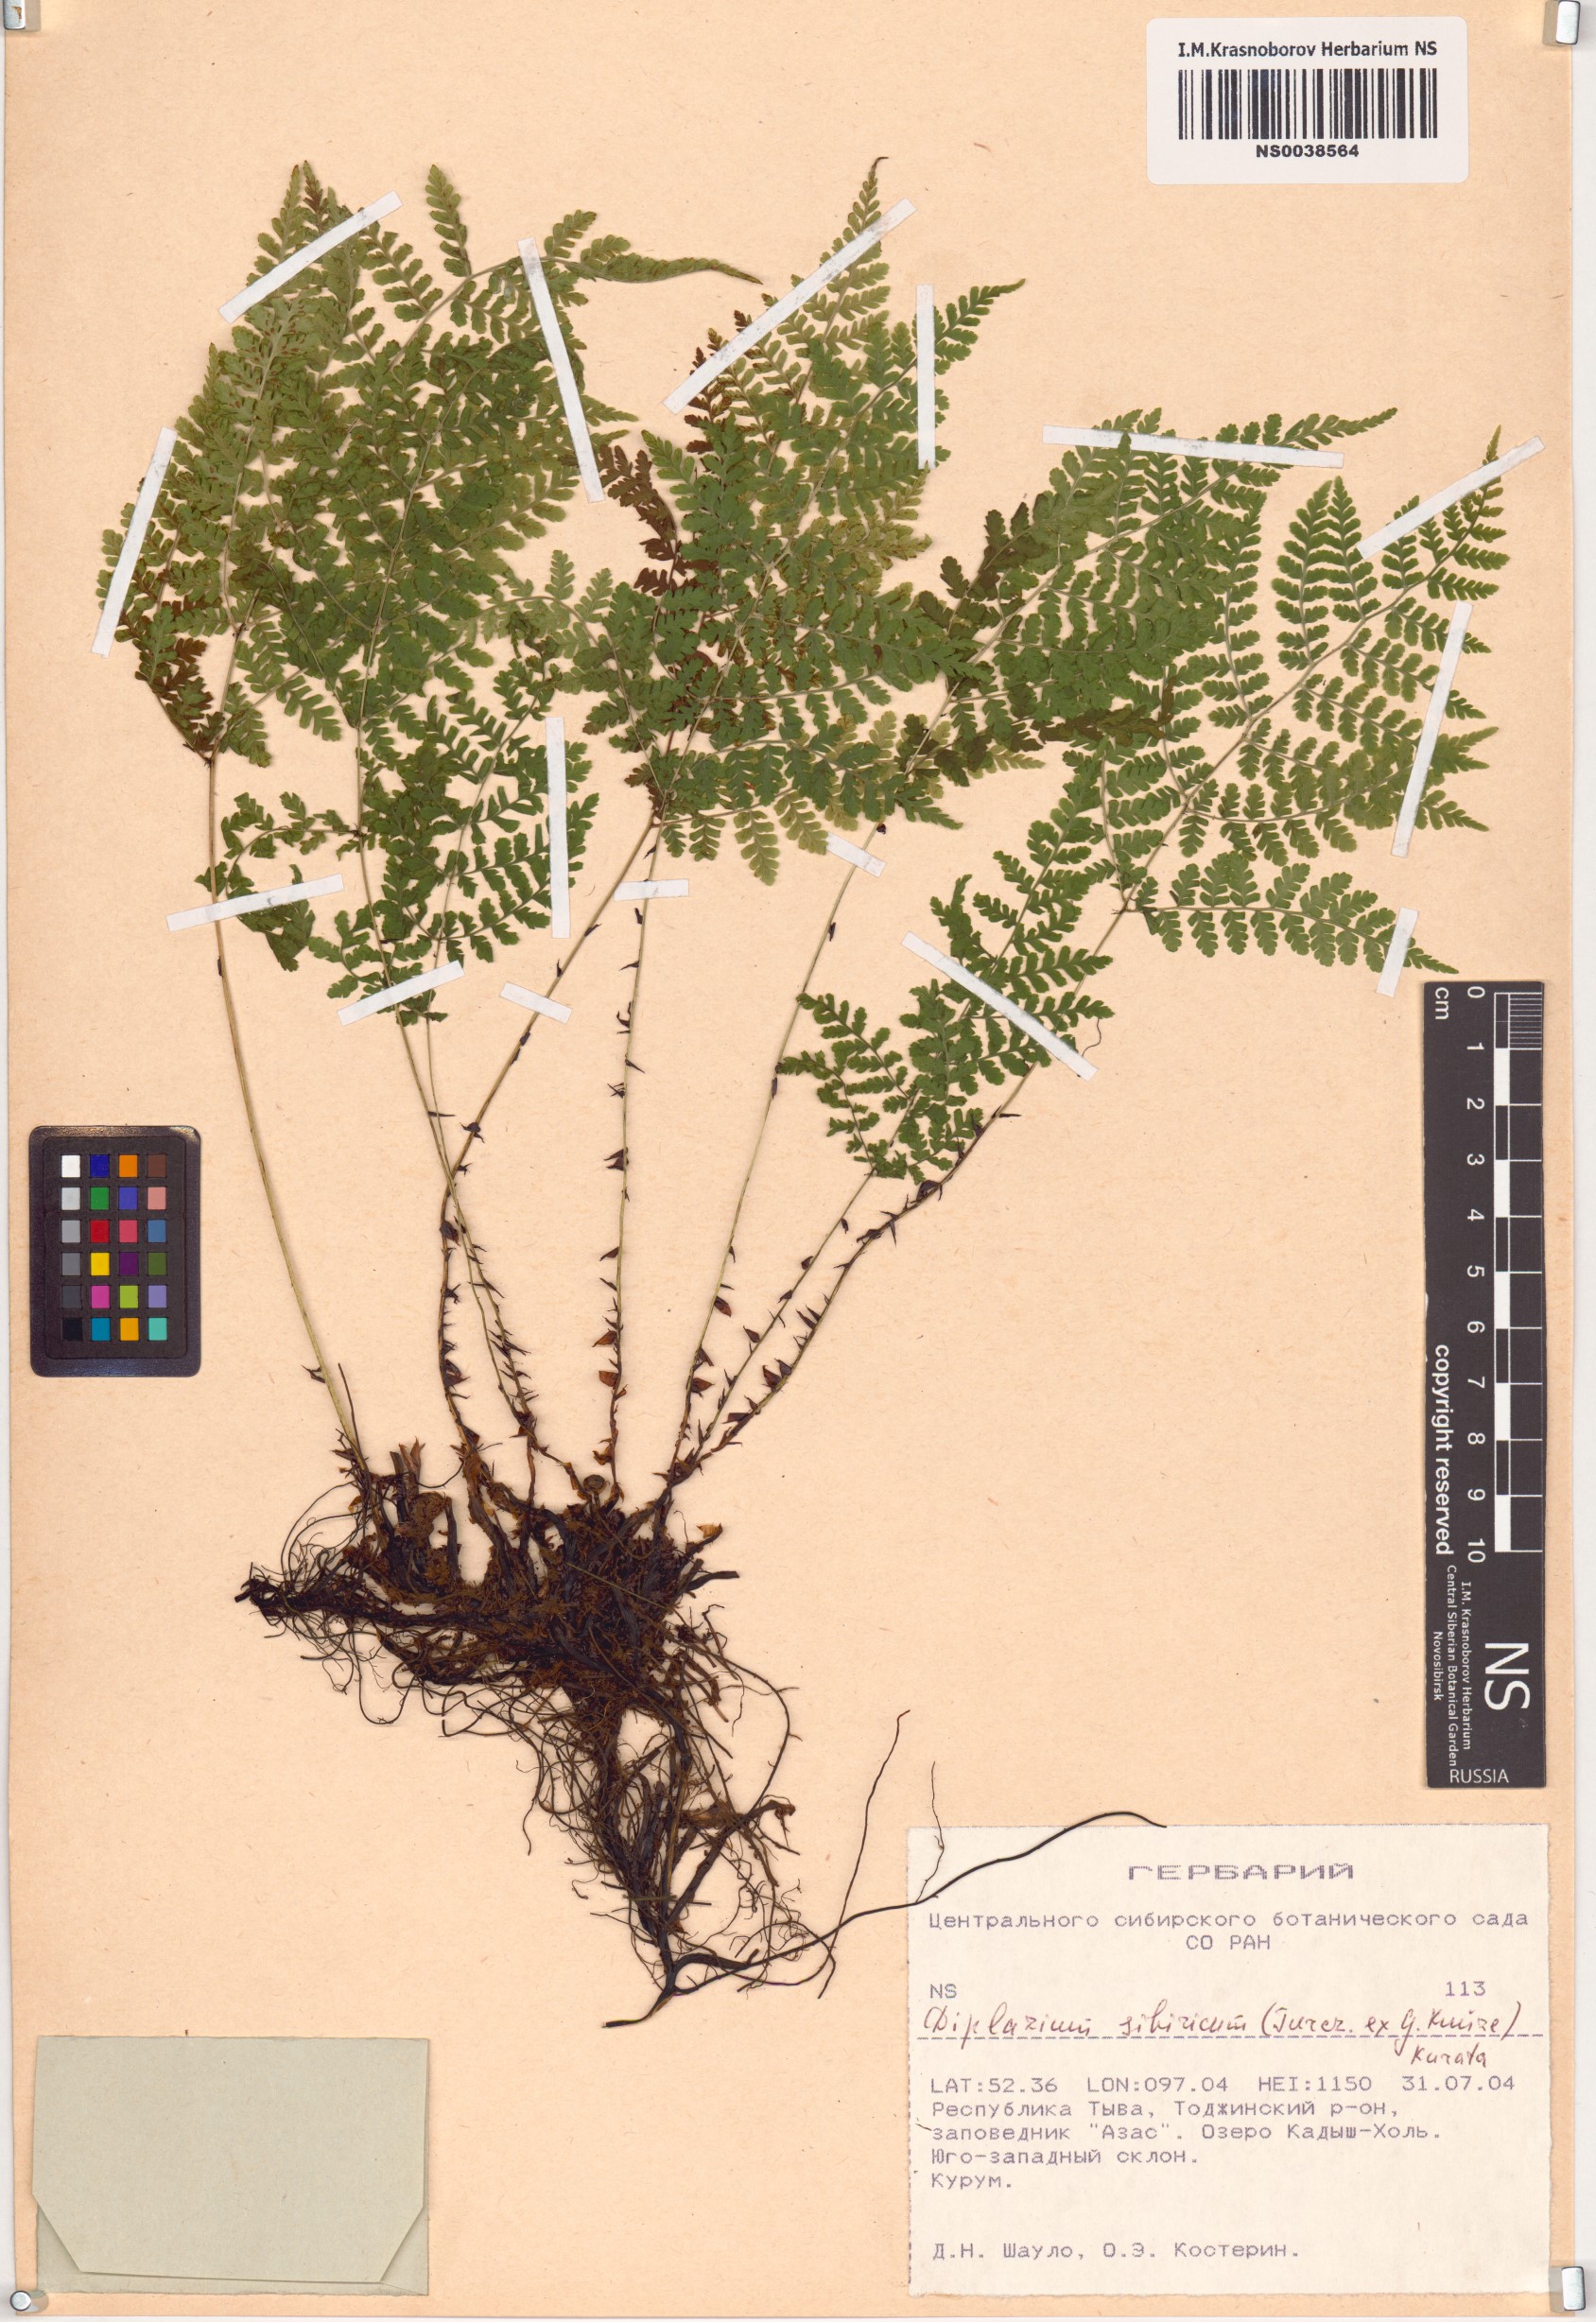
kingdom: Plantae
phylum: Tracheophyta
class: Polypodiopsida
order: Polypodiales
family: Athyriaceae
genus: Diplazium
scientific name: Diplazium sibiricum
